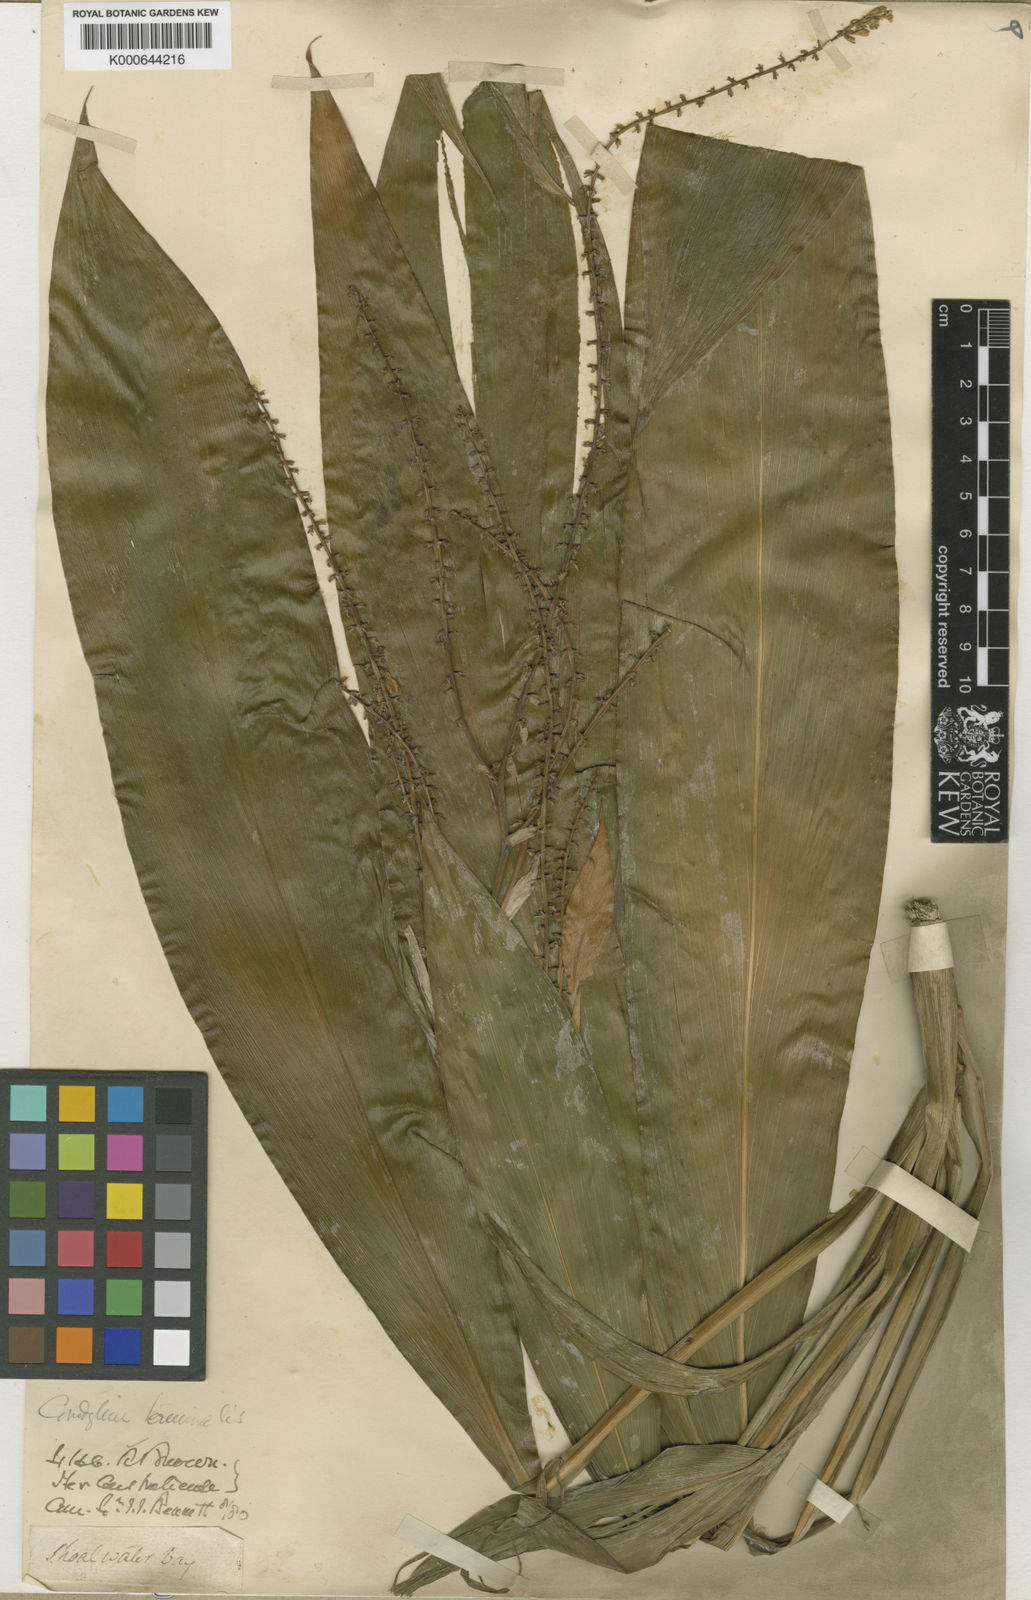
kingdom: Plantae
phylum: Tracheophyta
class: Liliopsida
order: Asparagales
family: Asparagaceae
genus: Cordyline
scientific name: Cordyline fruticosa
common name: Good-luck-plant
